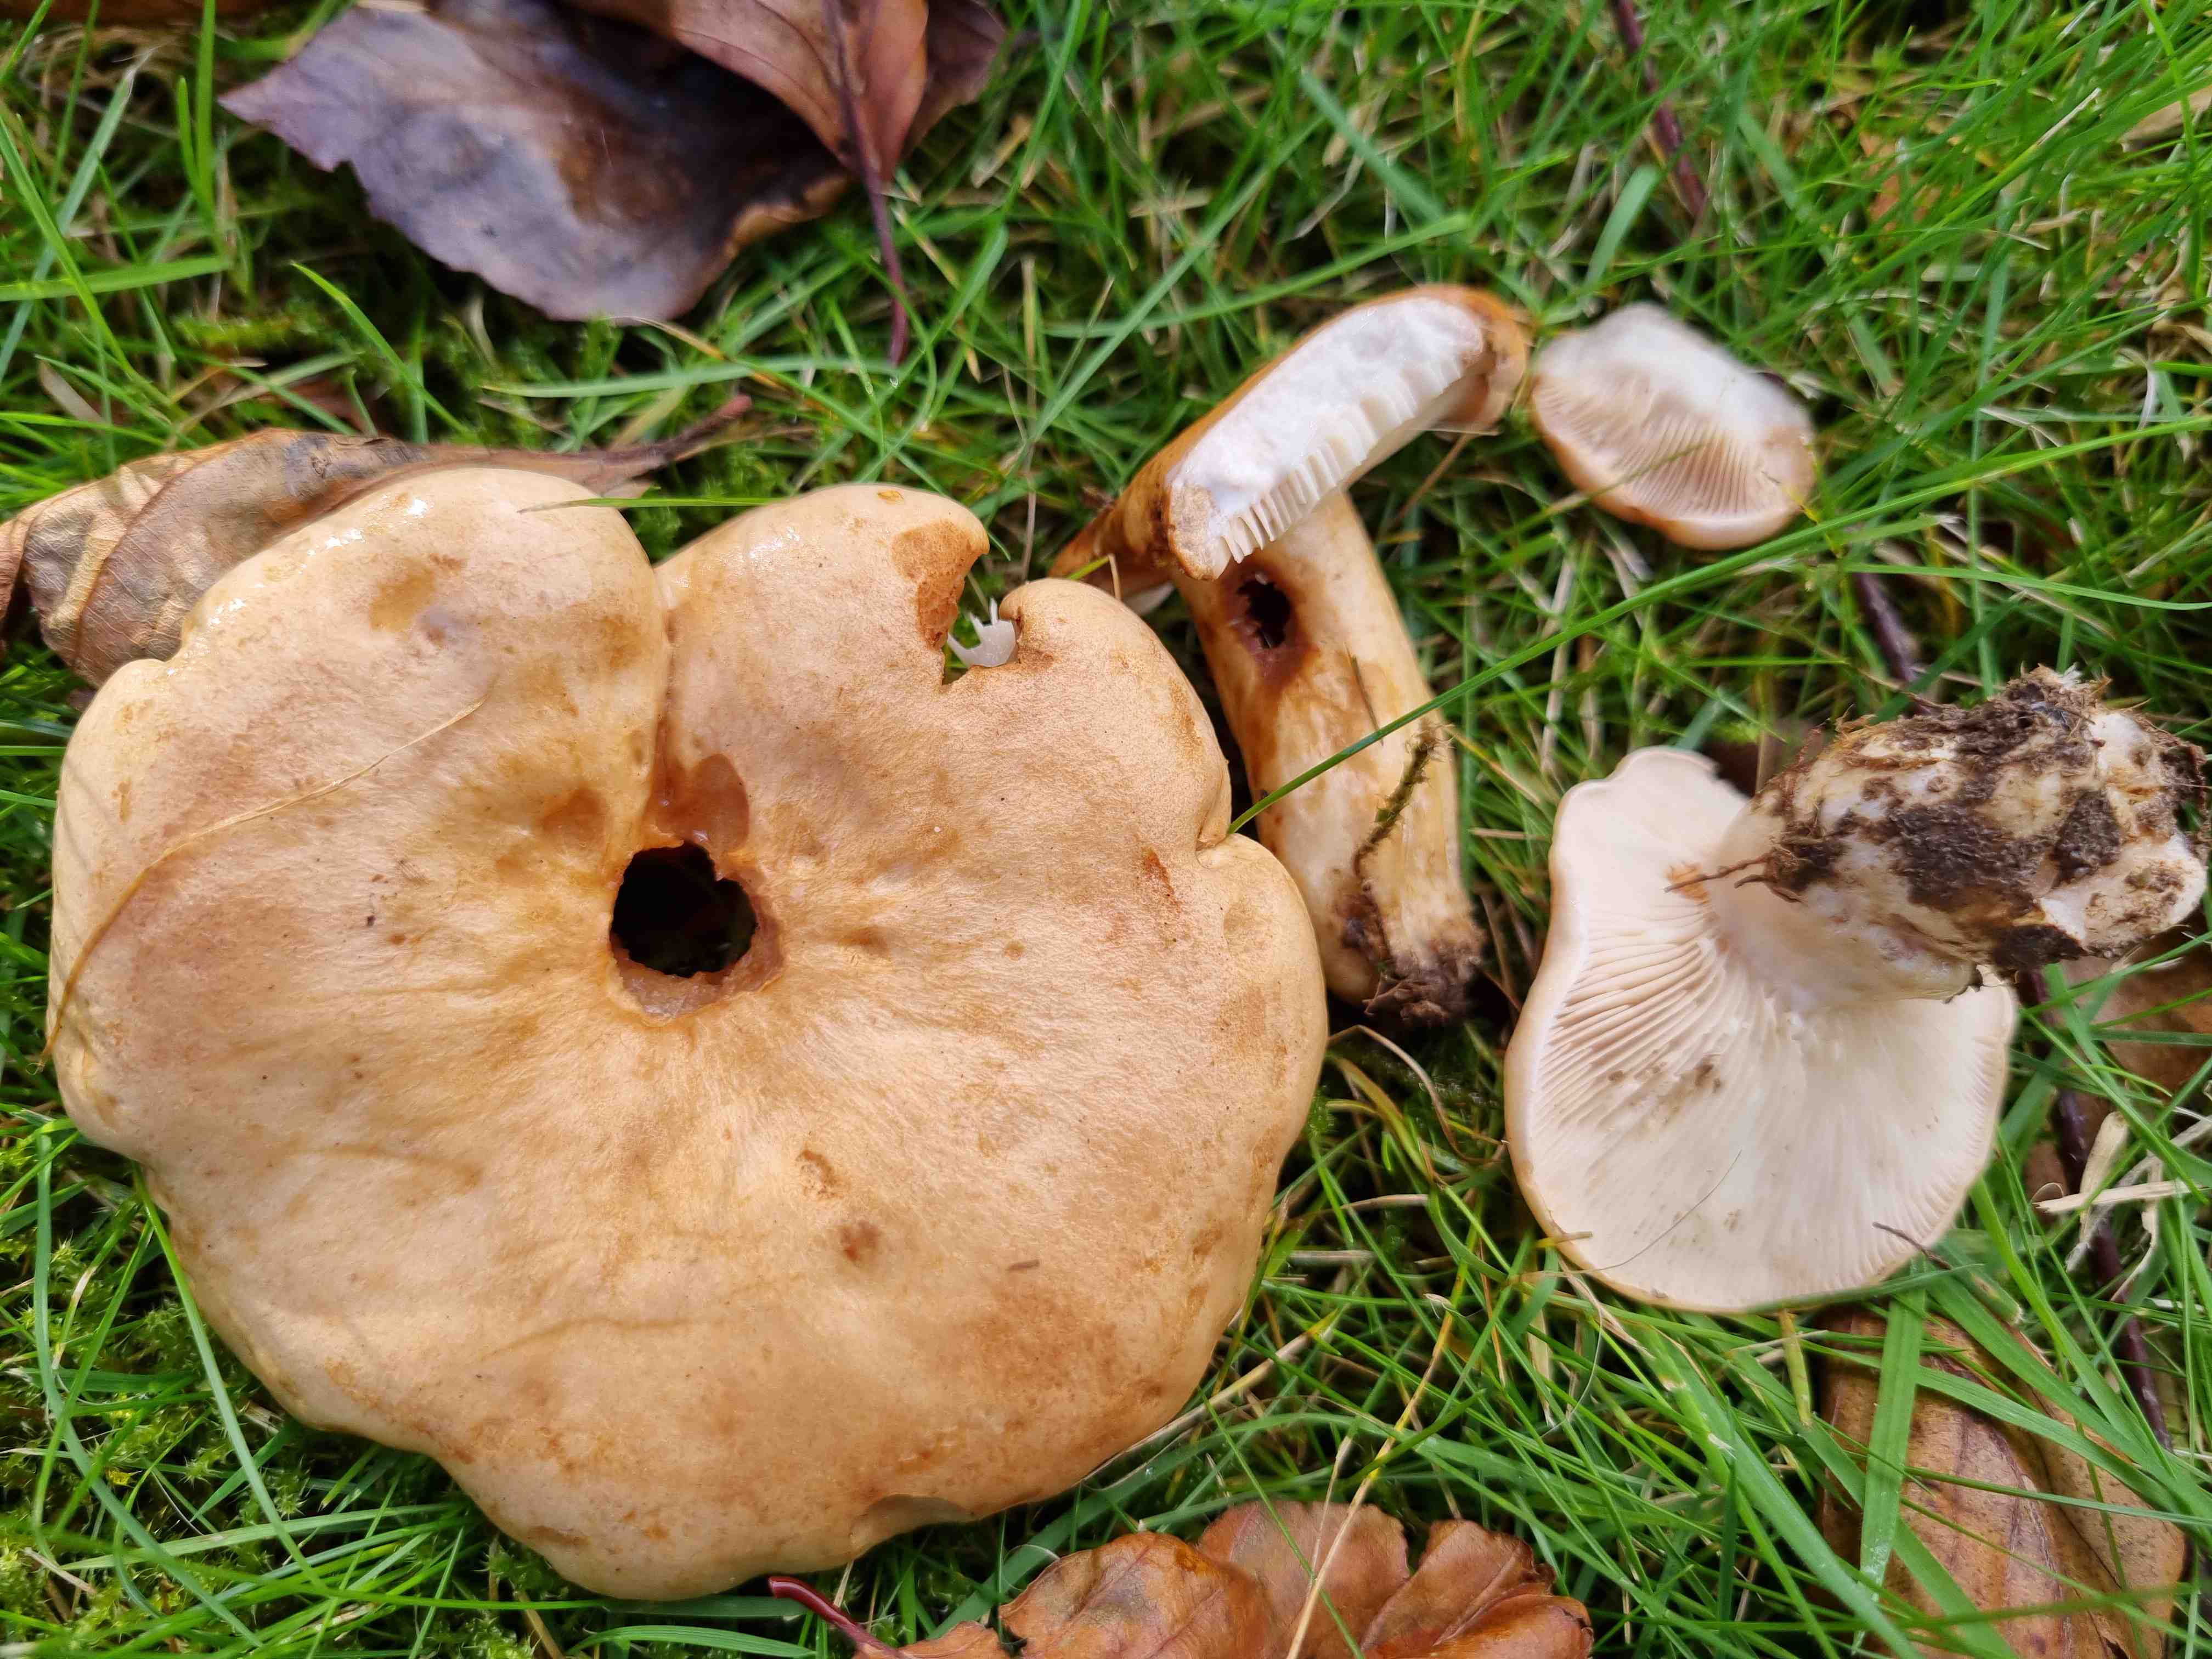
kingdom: Fungi
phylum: Basidiomycota
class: Agaricomycetes
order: Russulales
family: Russulaceae
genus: Lactarius
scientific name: Lactarius pallidus
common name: bleg mælkehat
